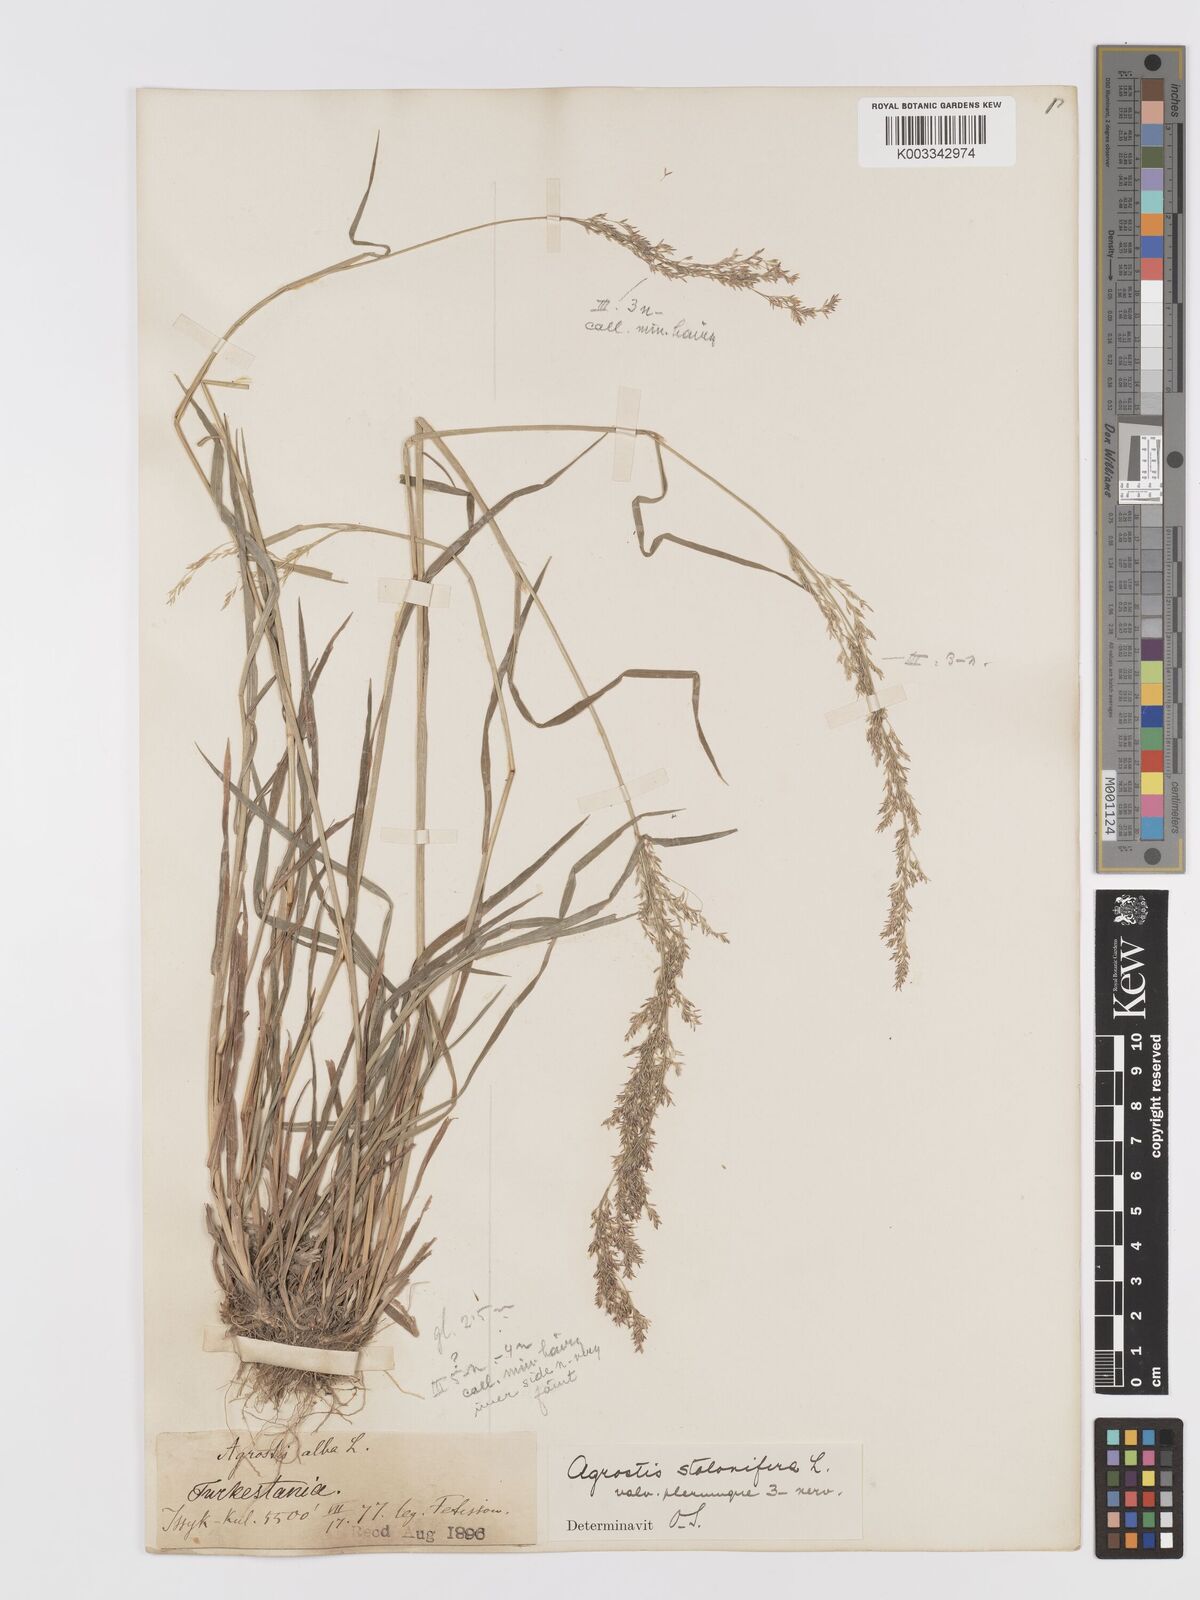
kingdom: Plantae
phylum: Tracheophyta
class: Liliopsida
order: Poales
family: Poaceae
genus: Agrostis
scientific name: Agrostis stolonifera
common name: Creeping bentgrass
